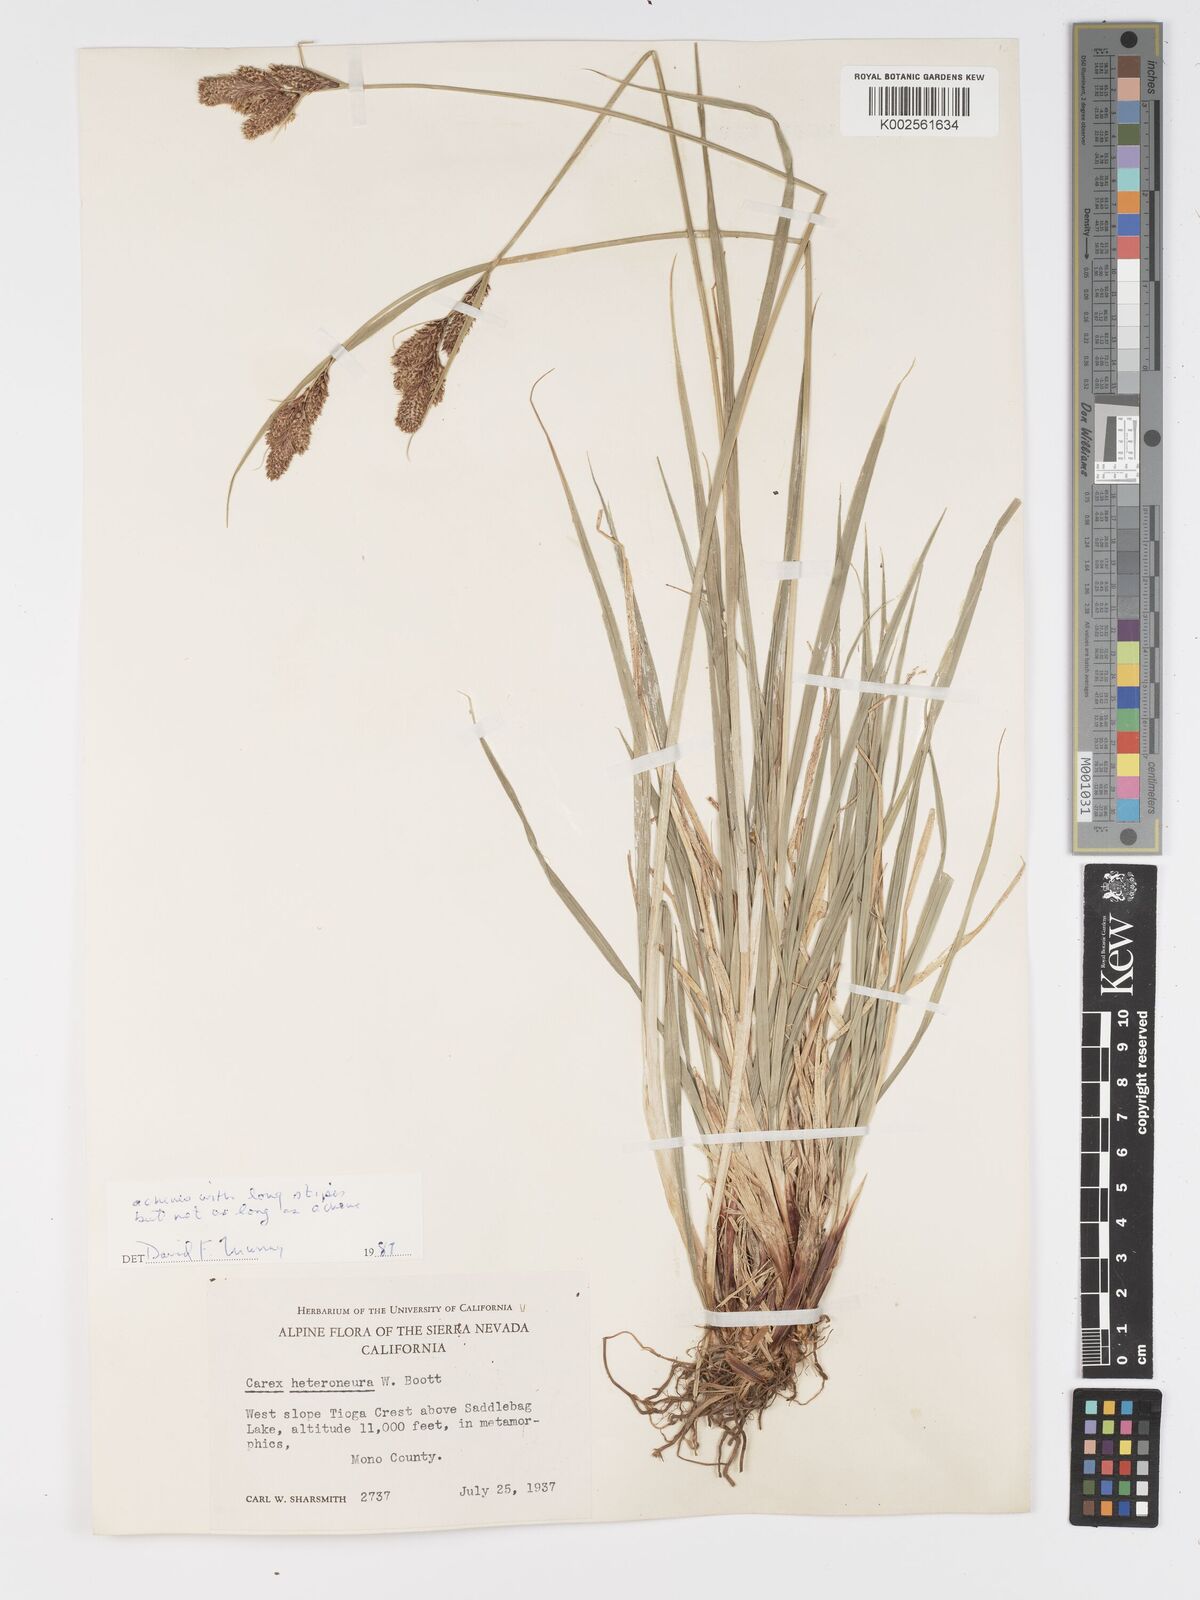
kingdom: Plantae
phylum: Tracheophyta
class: Liliopsida
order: Poales
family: Cyperaceae
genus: Carex
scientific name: Carex heteroneura
